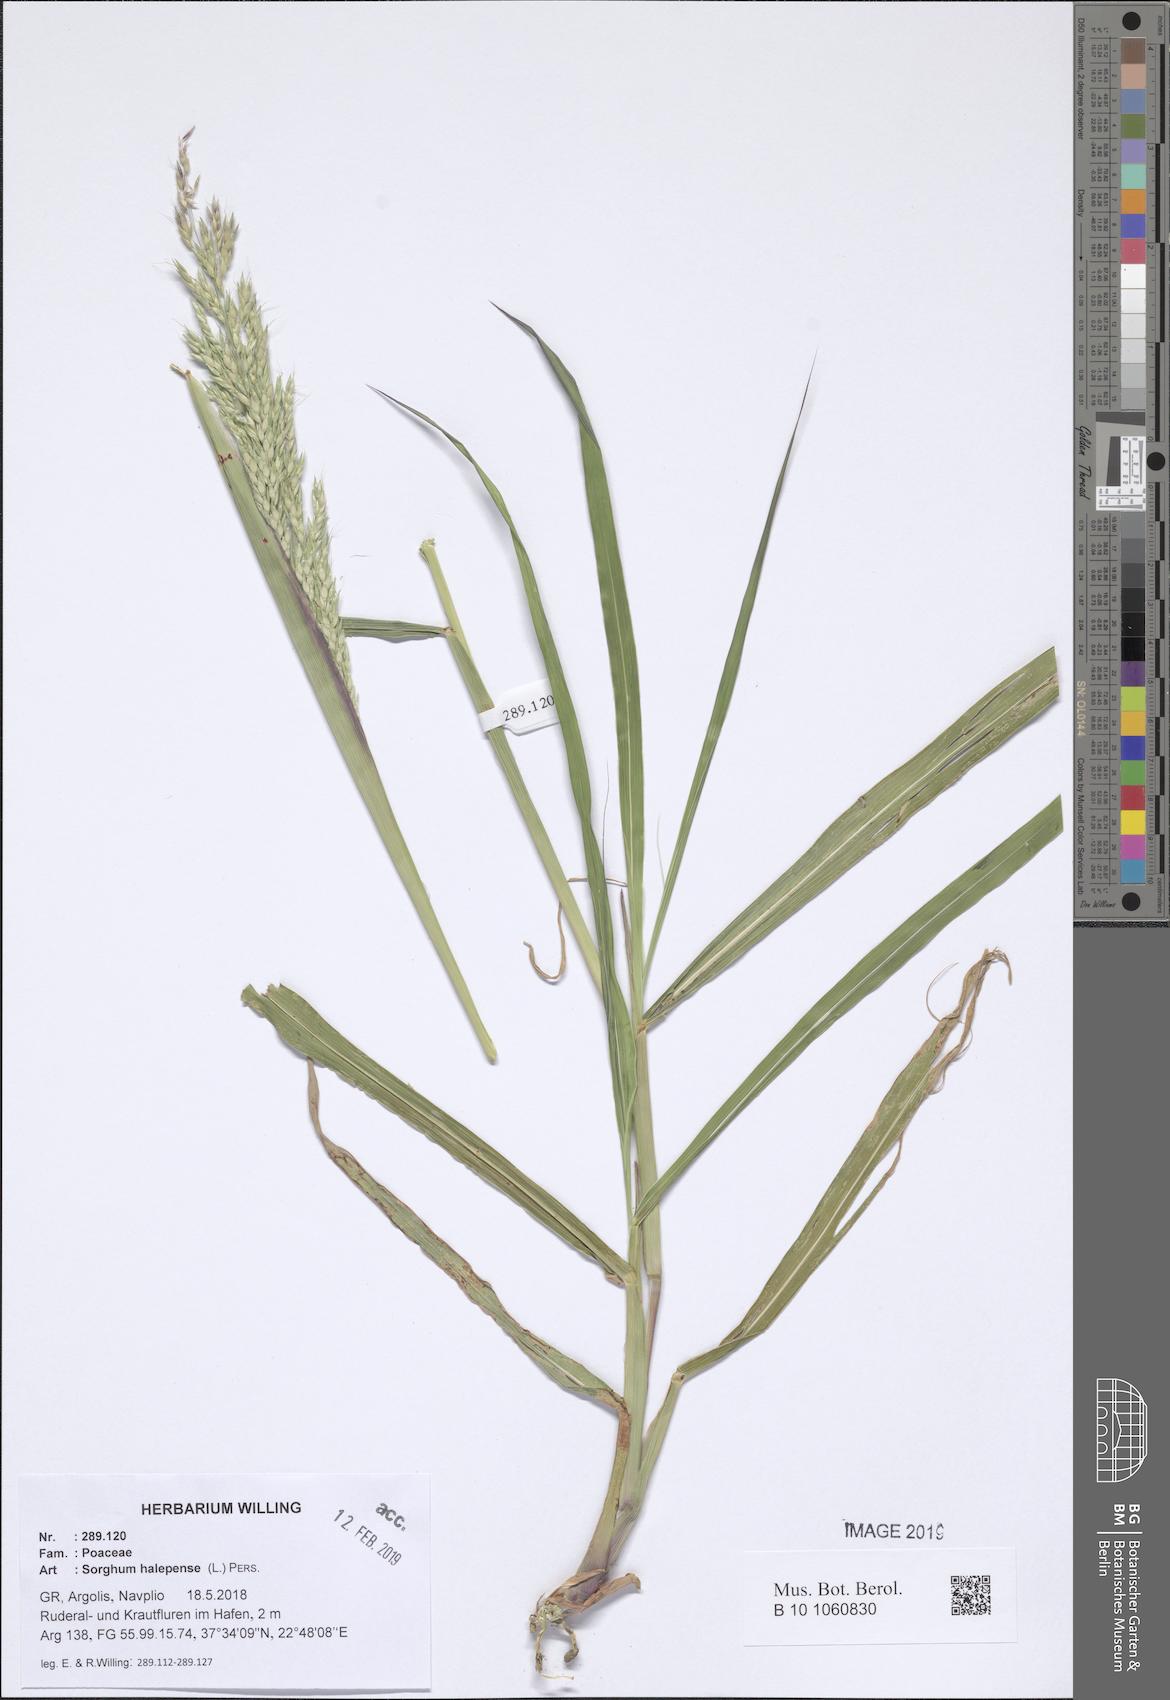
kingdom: Plantae
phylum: Tracheophyta
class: Liliopsida
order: Poales
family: Poaceae
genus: Sorghum
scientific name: Sorghum halepense
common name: Johnson-grass
